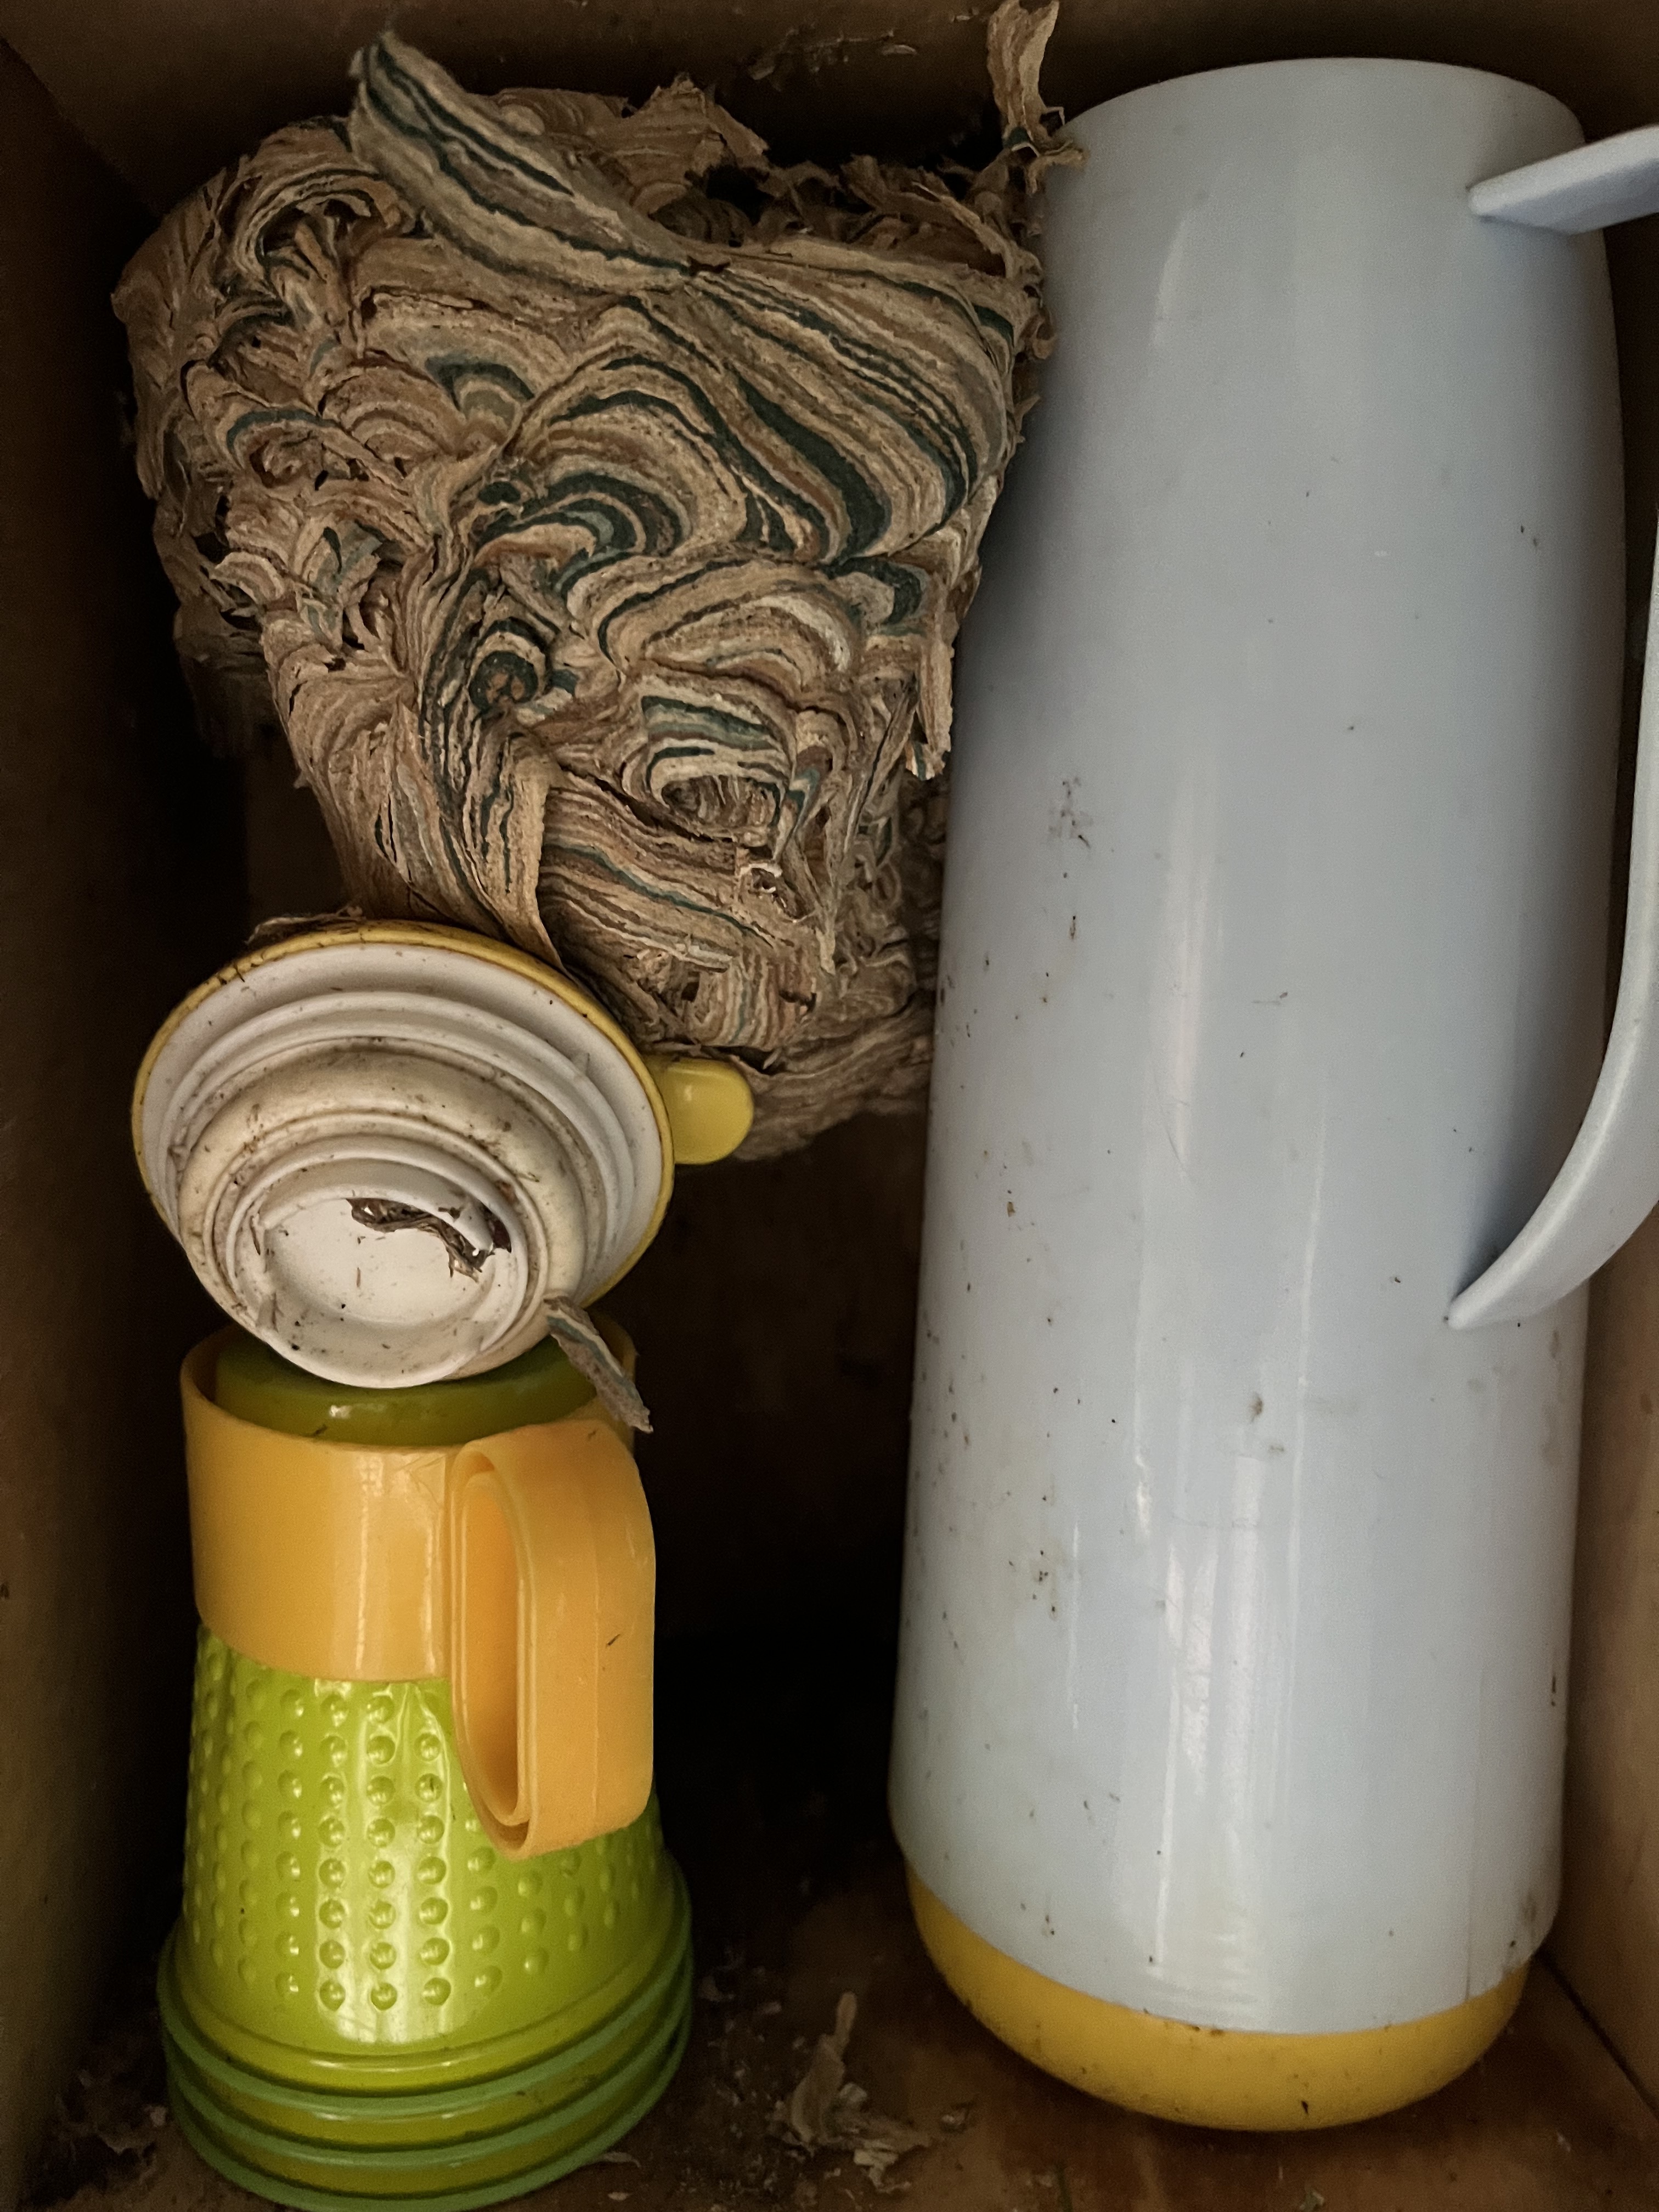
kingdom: Animalia
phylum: Arthropoda
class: Insecta
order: Hymenoptera
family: Vespidae
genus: Vespula
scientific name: Vespula vulgaris
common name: Common wasp
